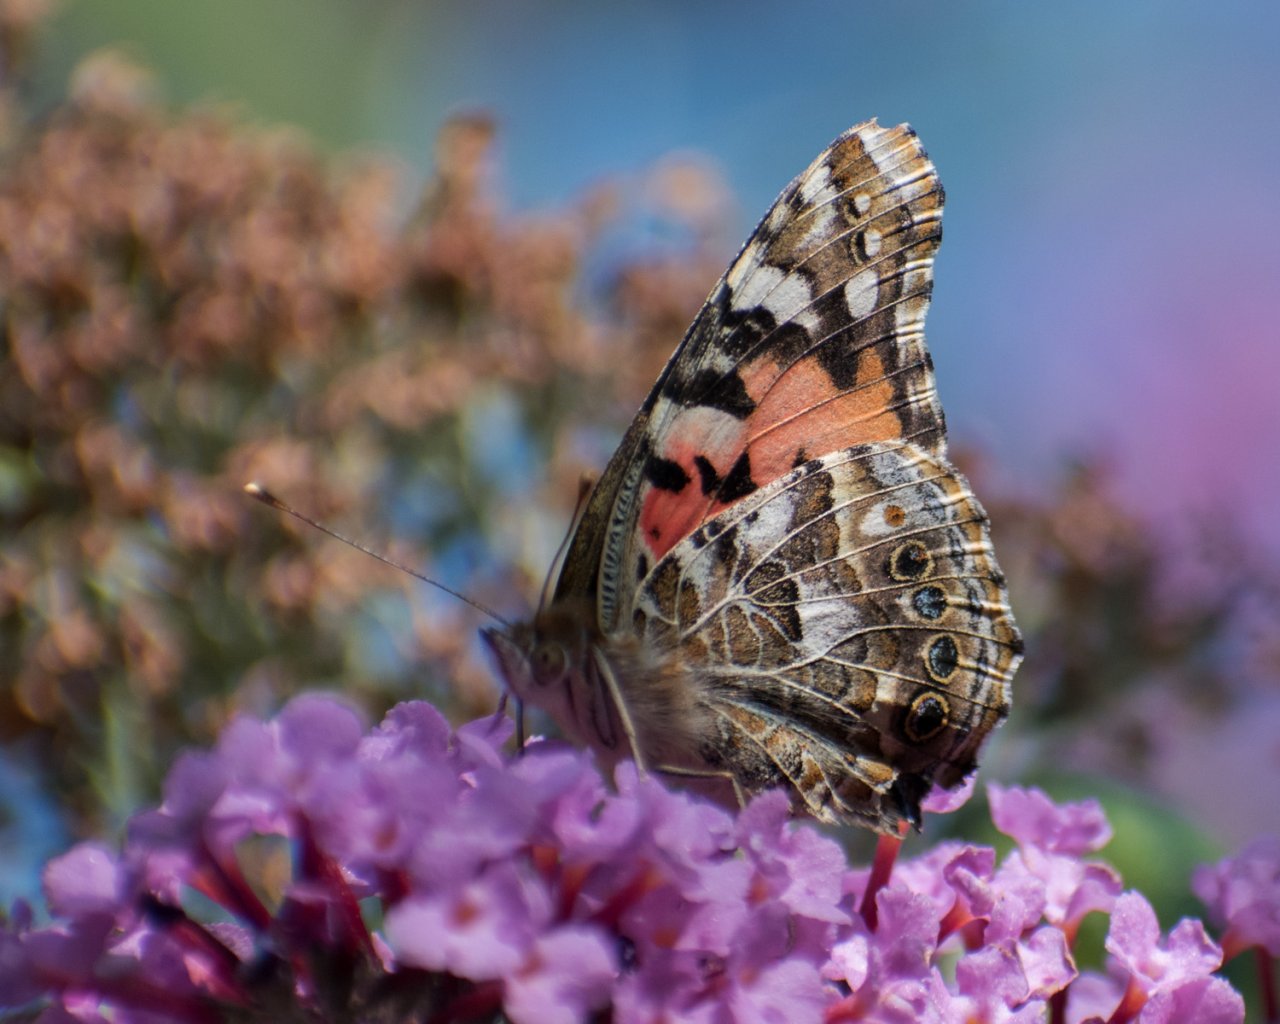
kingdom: Animalia
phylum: Arthropoda
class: Insecta
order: Lepidoptera
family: Nymphalidae
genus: Vanessa
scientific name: Vanessa cardui
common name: Painted Lady
